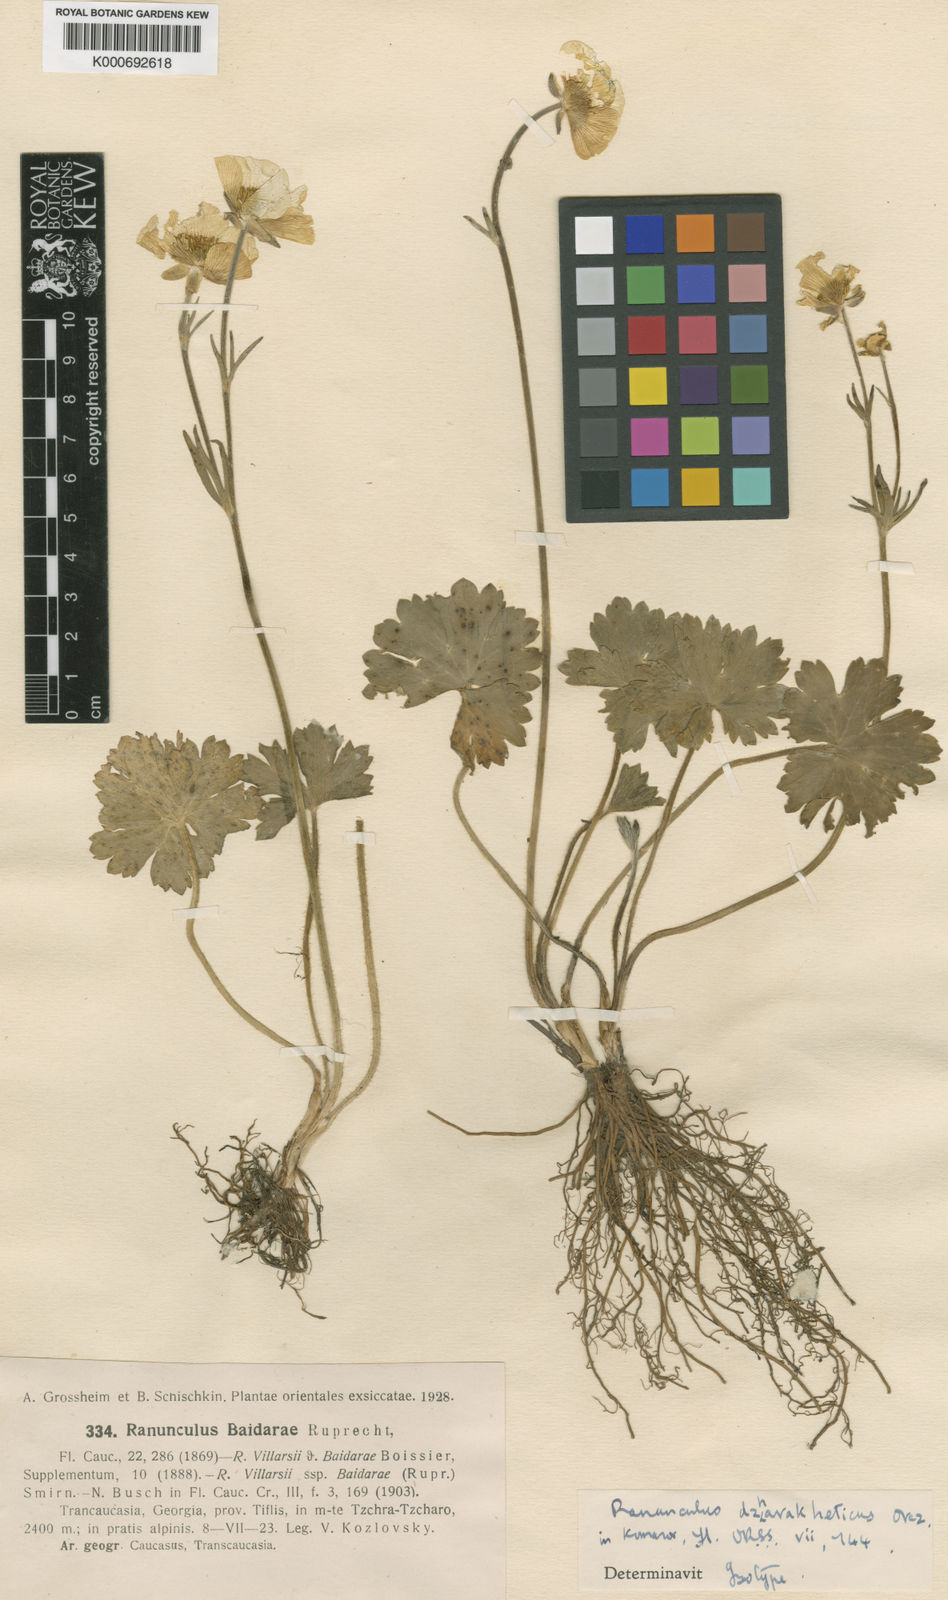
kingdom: Plantae
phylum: Tracheophyta
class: Magnoliopsida
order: Ranunculales
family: Ranunculaceae
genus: Ranunculus
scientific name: Ranunculus baidarae
